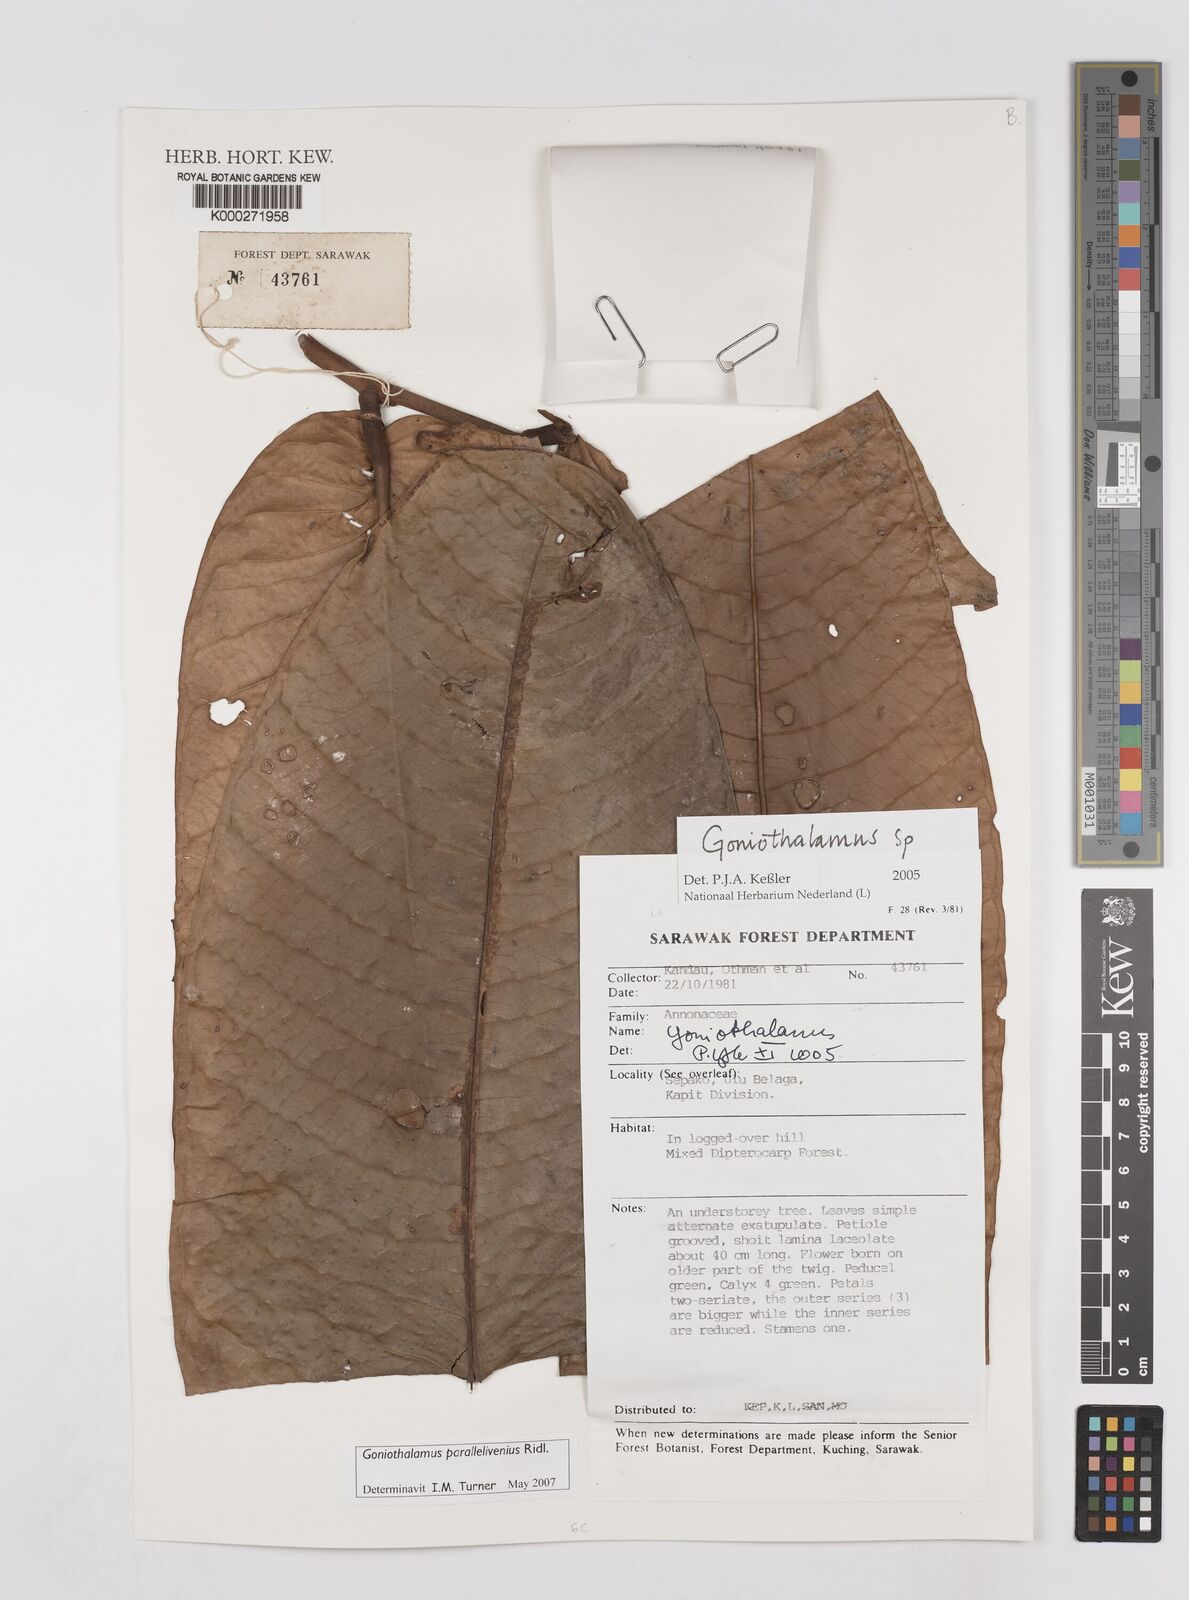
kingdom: Plantae
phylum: Tracheophyta
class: Magnoliopsida
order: Magnoliales
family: Annonaceae
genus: Goniothalamus
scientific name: Goniothalamus
